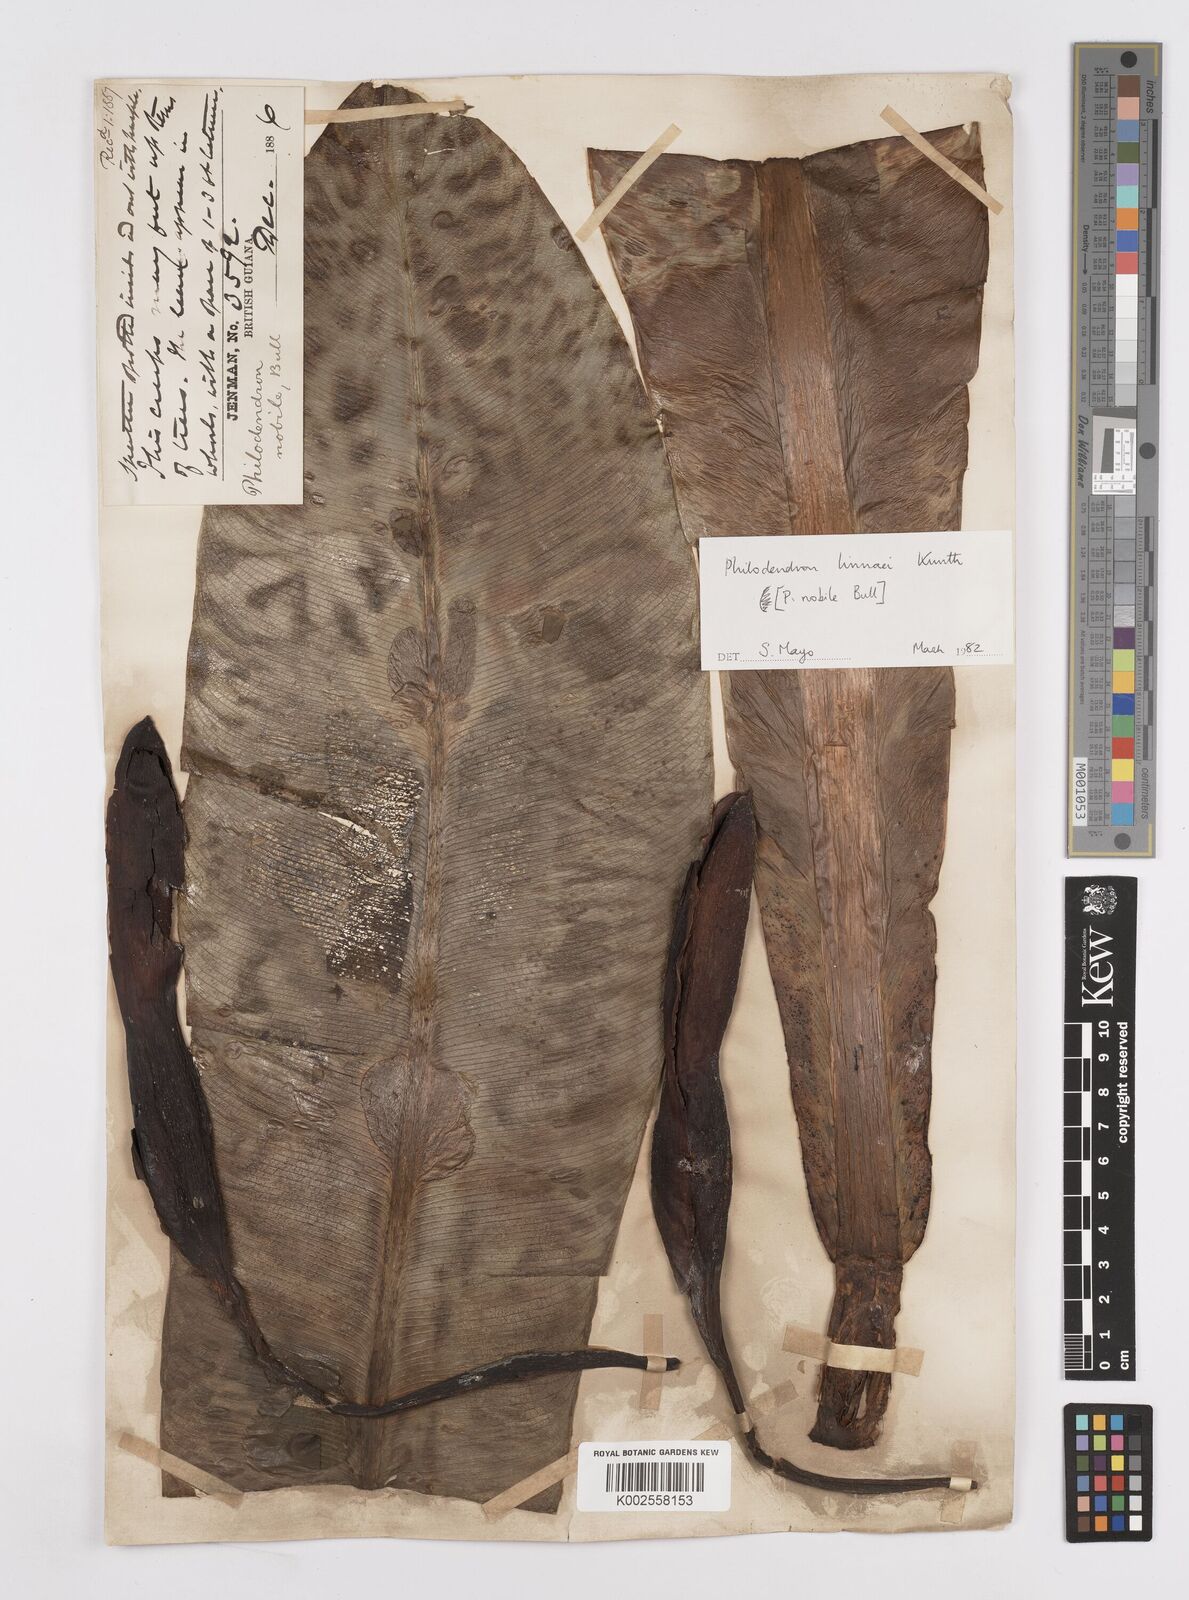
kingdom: Plantae
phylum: Tracheophyta
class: Liliopsida
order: Alismatales
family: Araceae
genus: Philodendron
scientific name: Philodendron linnaei
